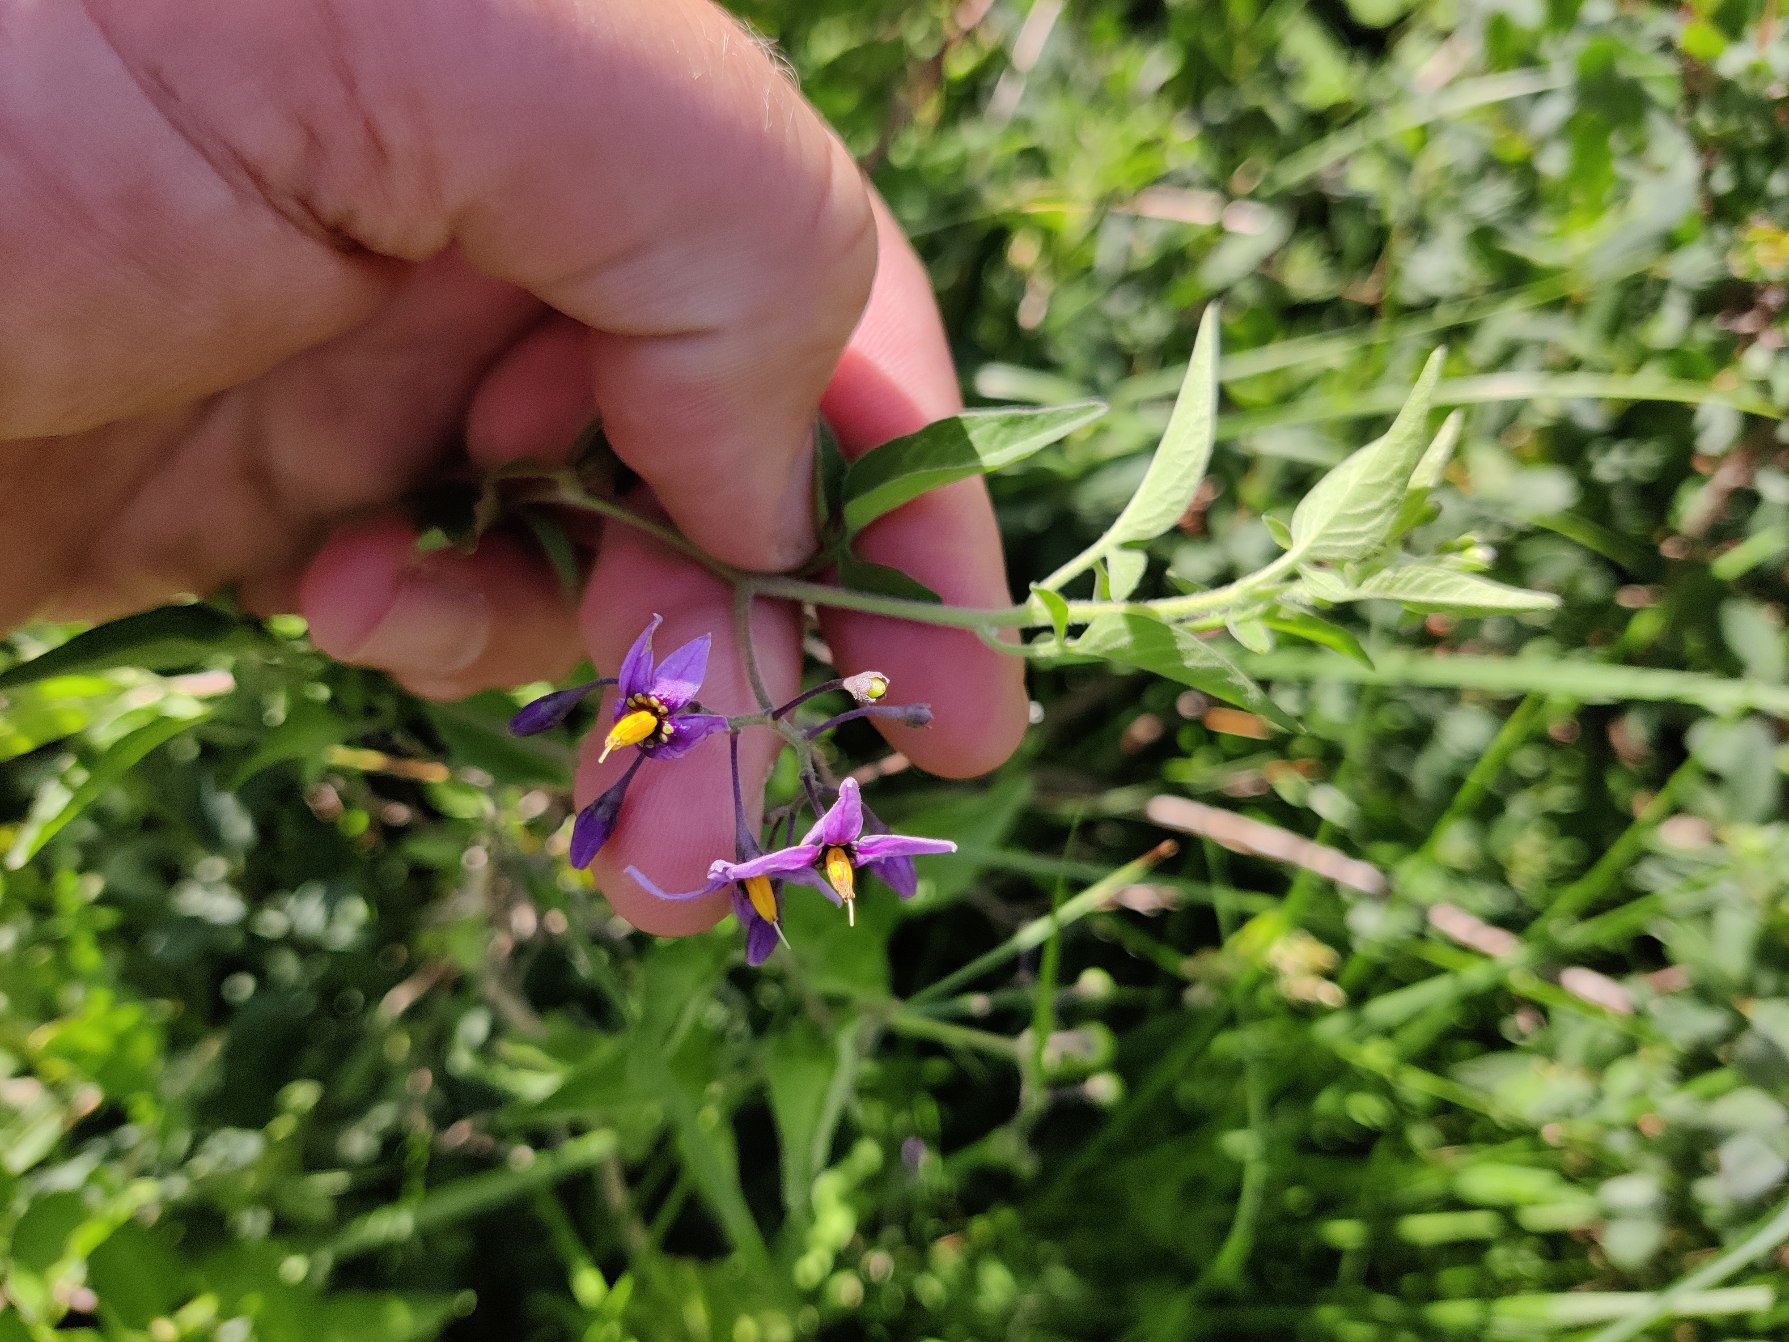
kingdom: Plantae
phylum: Tracheophyta
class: Magnoliopsida
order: Solanales
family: Solanaceae
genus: Solanum
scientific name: Solanum dulcamara
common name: Bittersød natskygge
